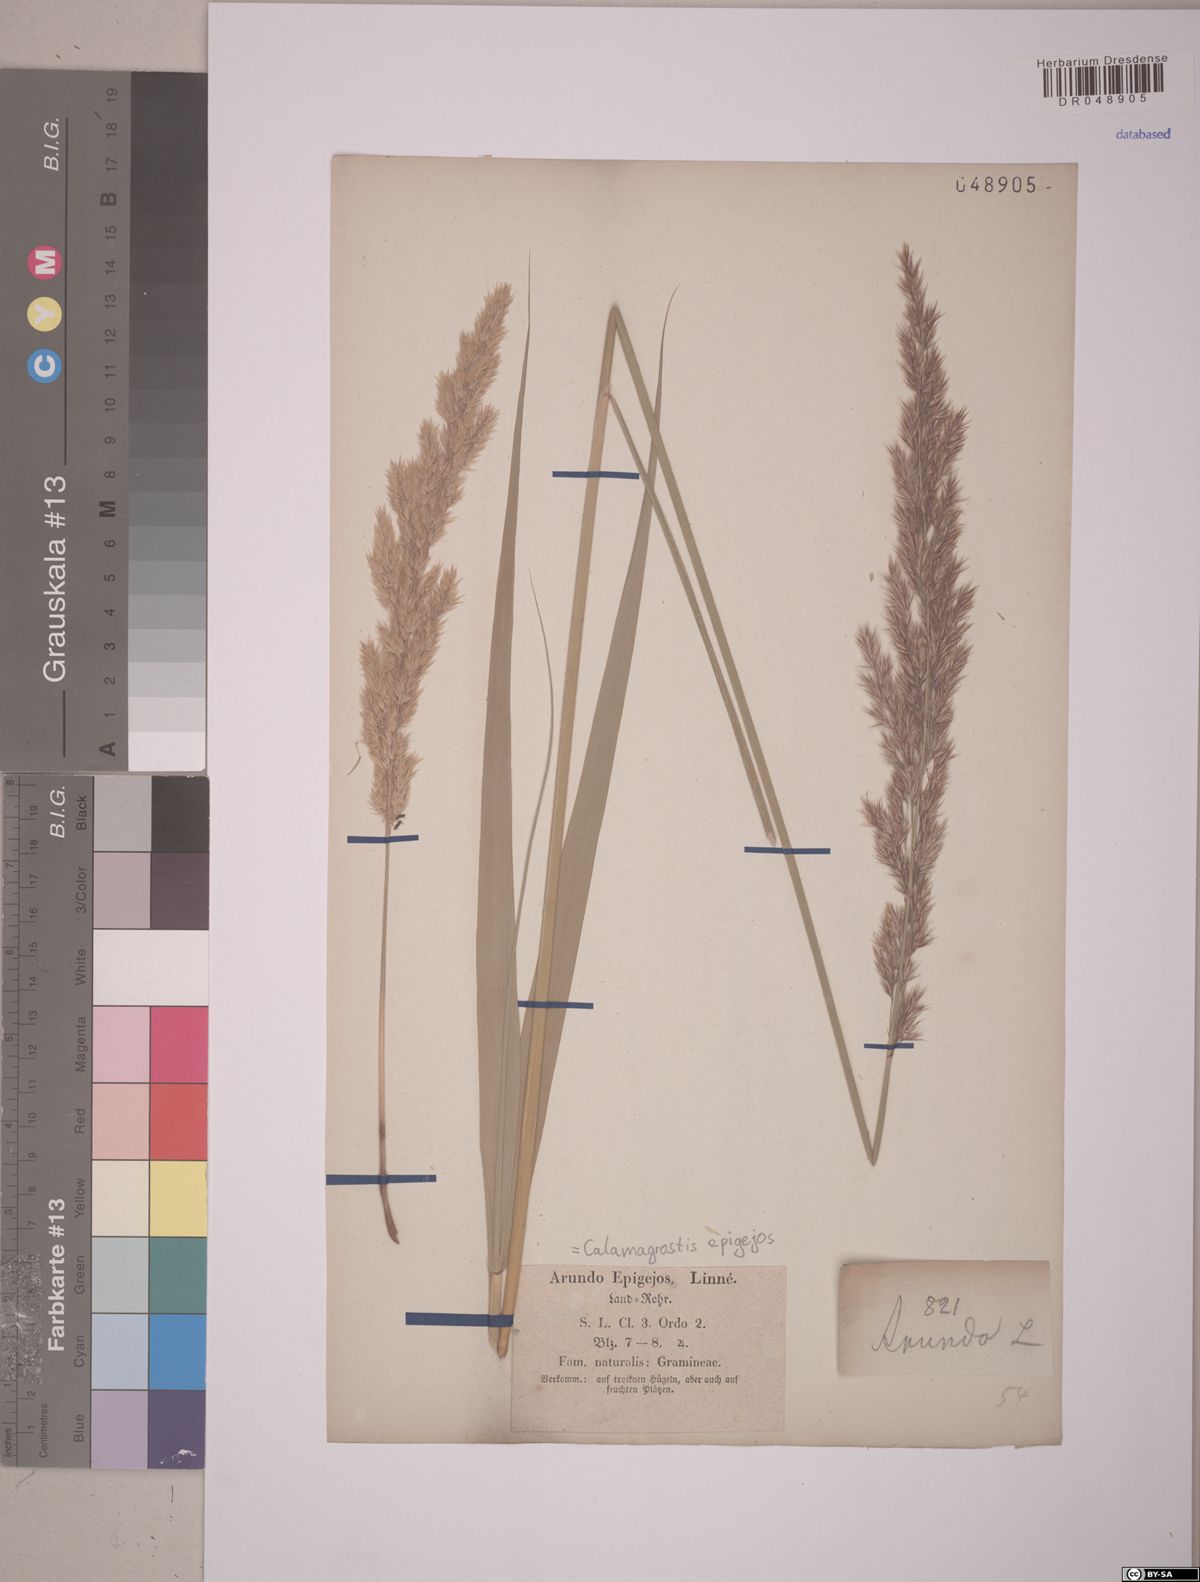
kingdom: Plantae
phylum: Tracheophyta
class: Liliopsida
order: Poales
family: Poaceae
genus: Calamagrostis
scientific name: Calamagrostis epigejos
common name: Wood small-reed
